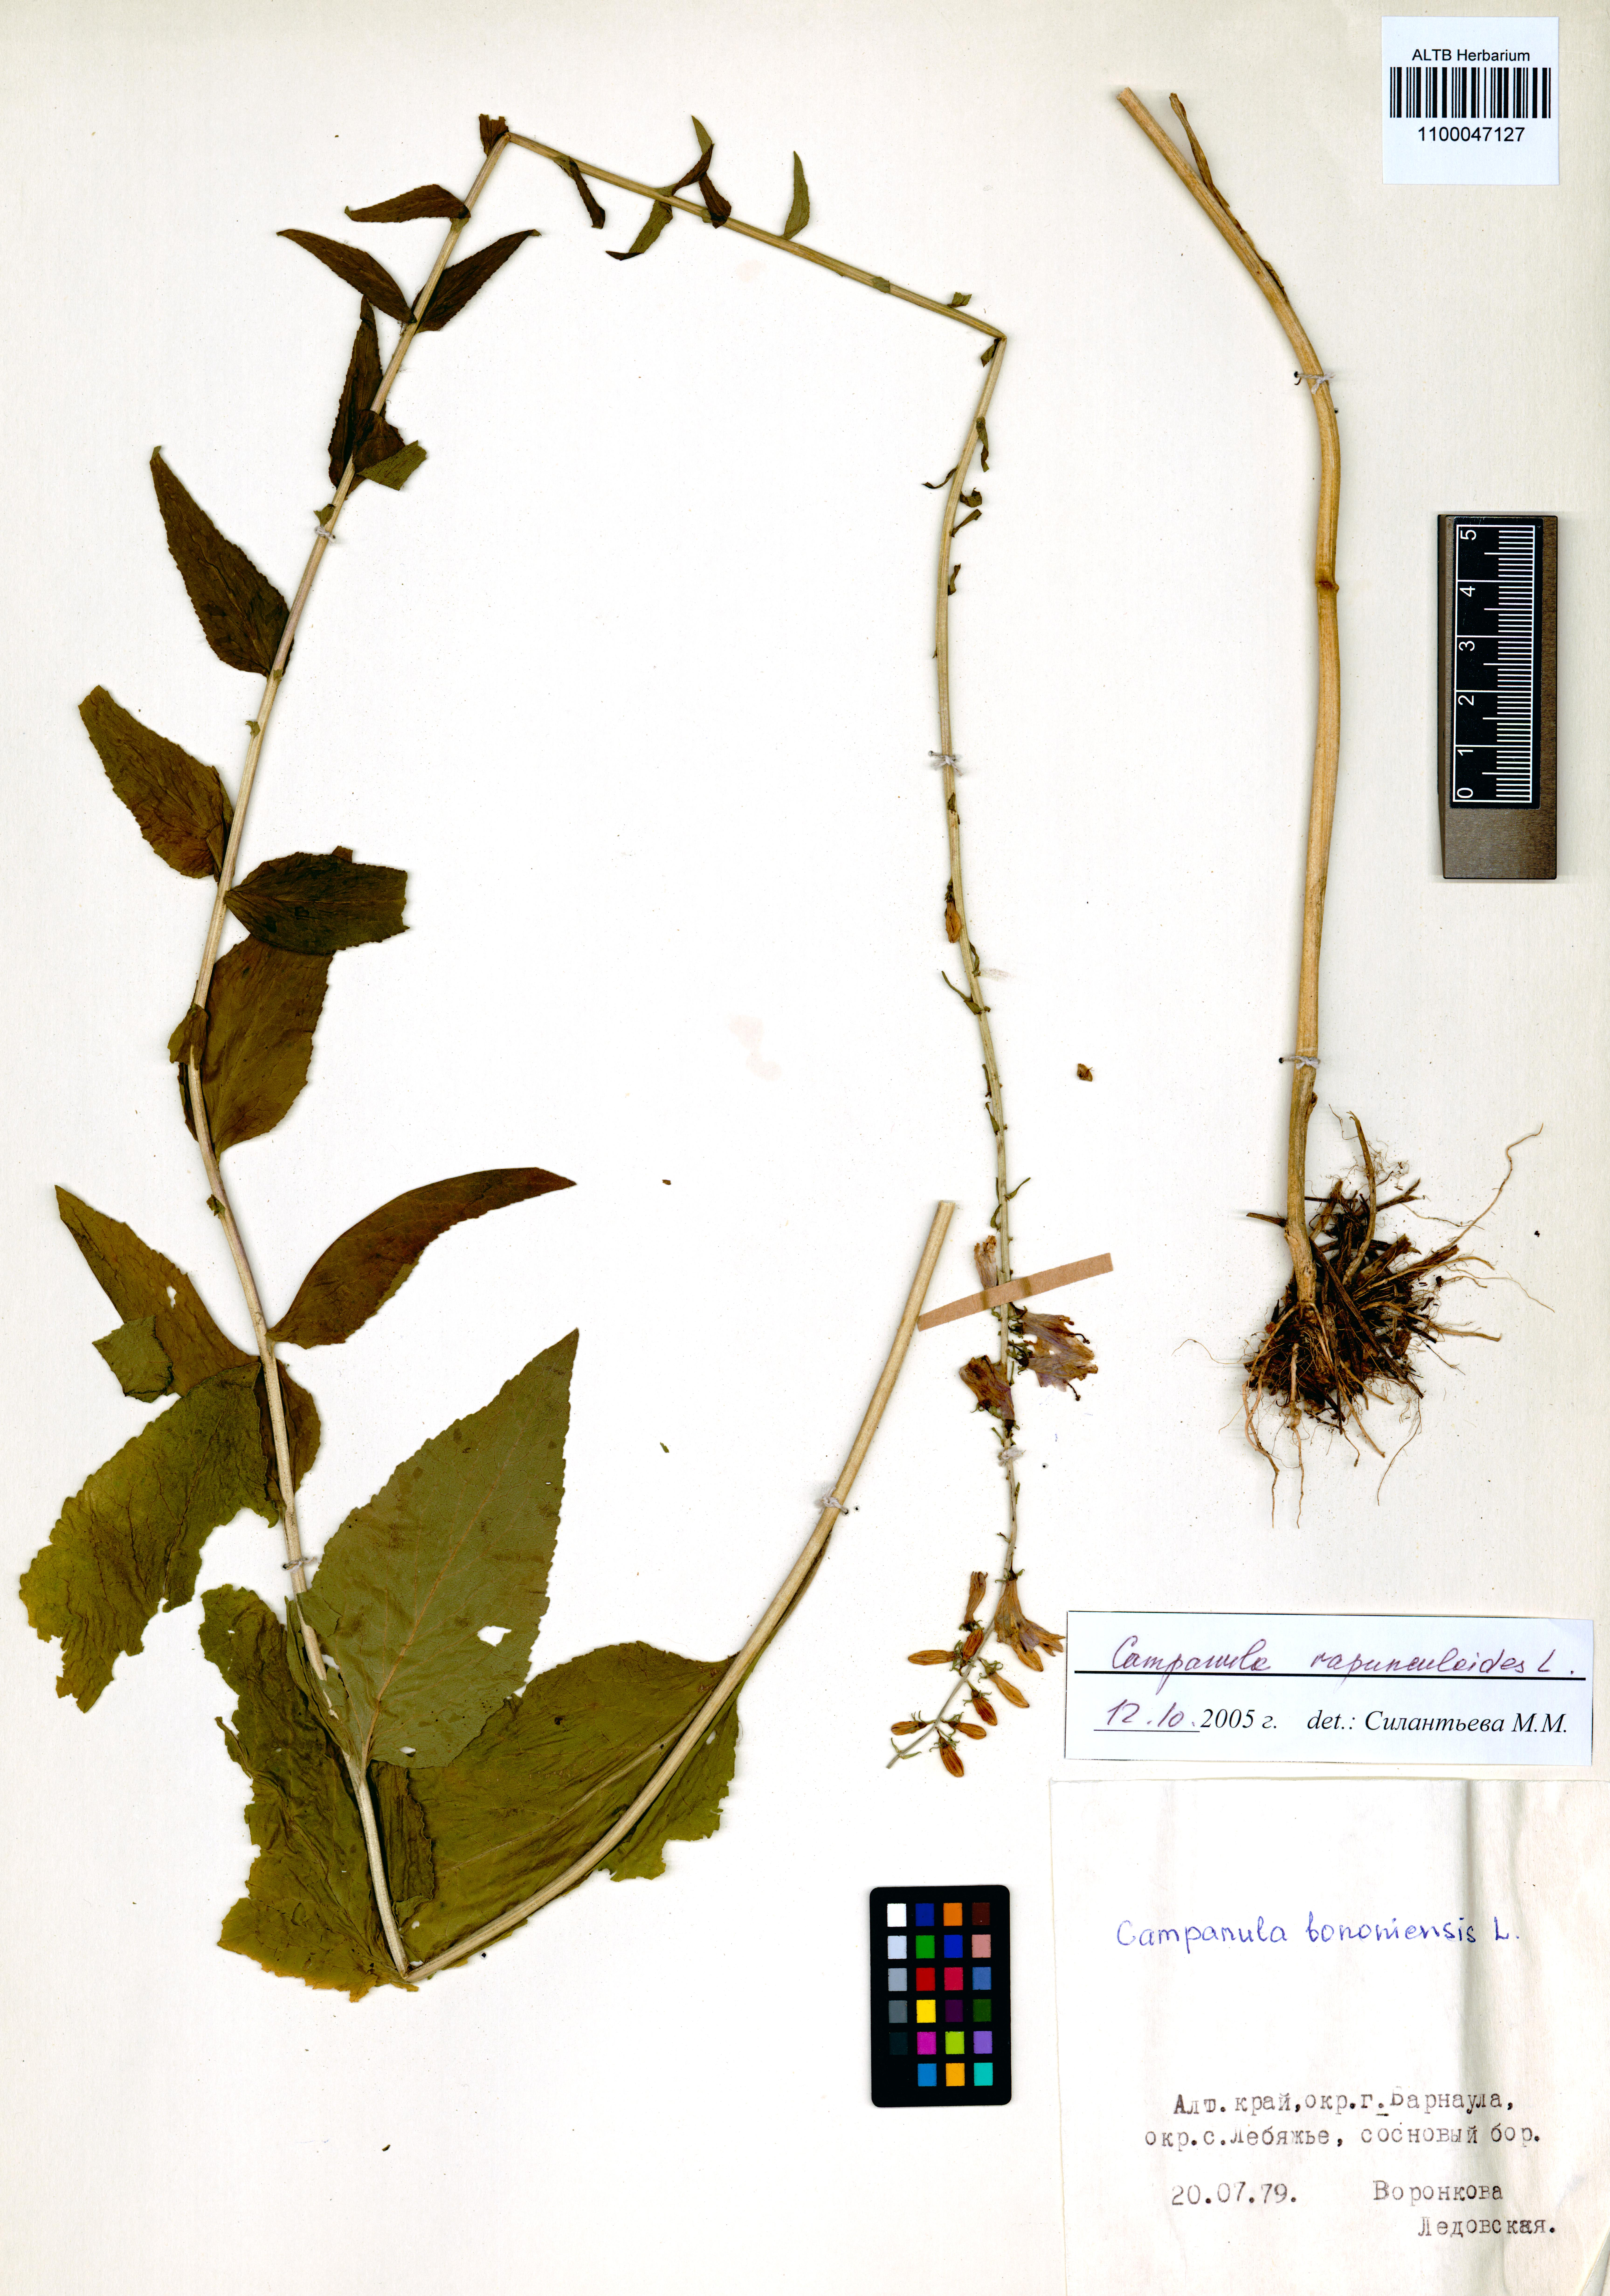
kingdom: Plantae
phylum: Tracheophyta
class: Magnoliopsida
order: Asterales
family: Campanulaceae
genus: Campanula
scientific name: Campanula rapunculoides
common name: Creeping bellflower
